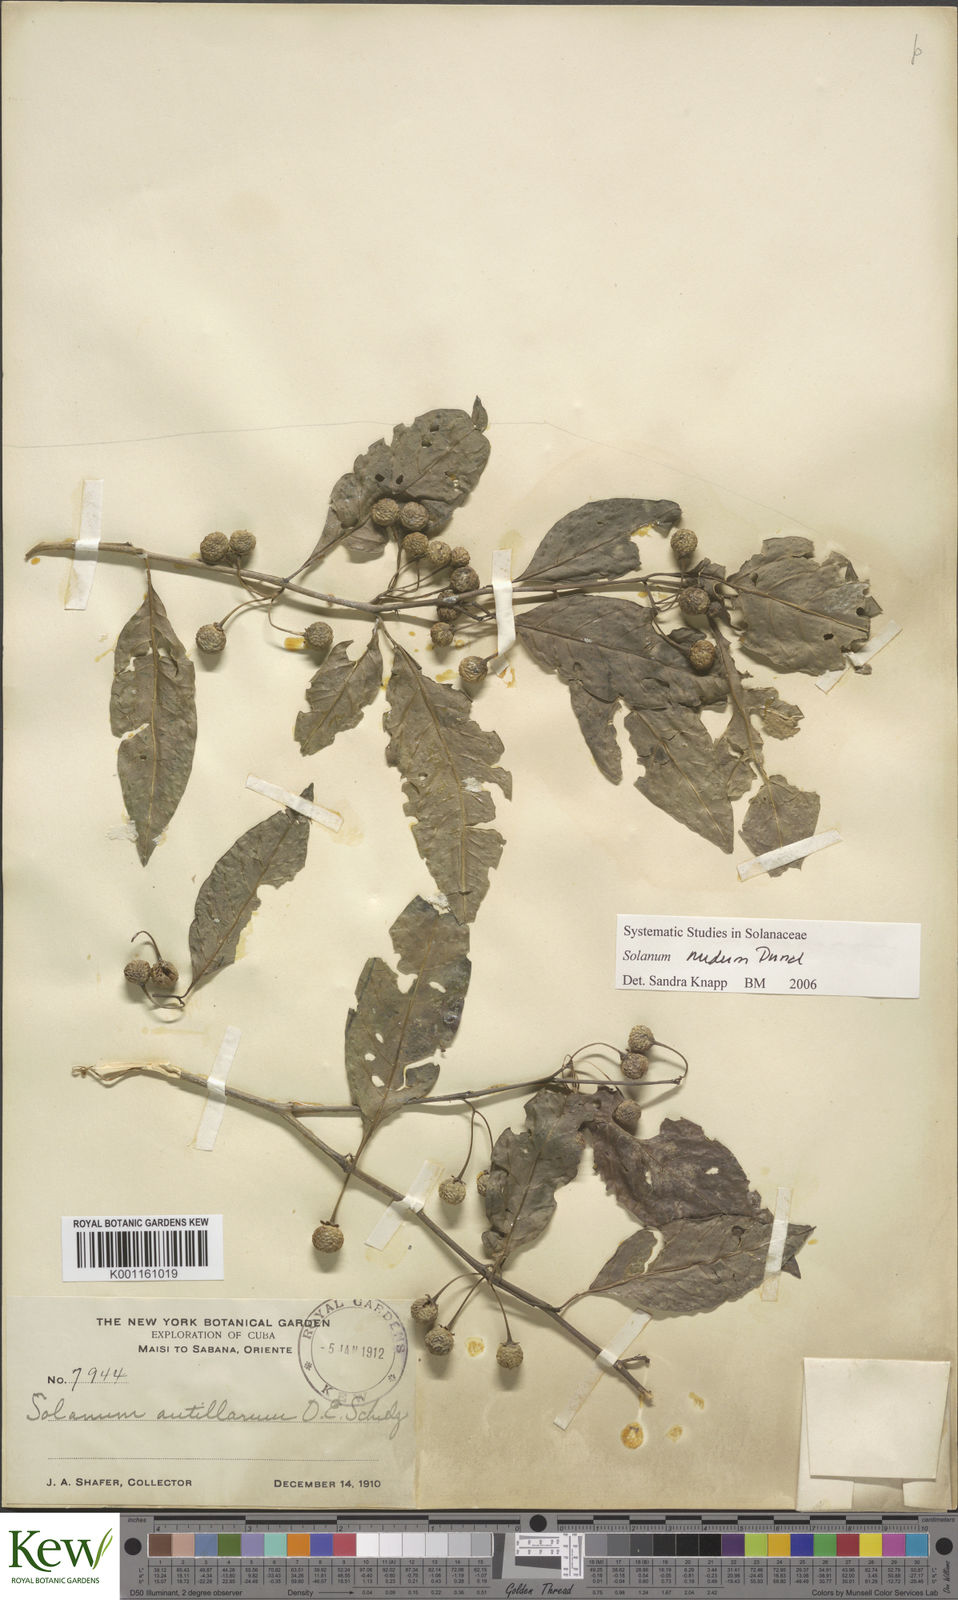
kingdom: Plantae
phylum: Tracheophyta
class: Magnoliopsida
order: Solanales
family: Solanaceae
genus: Solanum
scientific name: Solanum nudum
